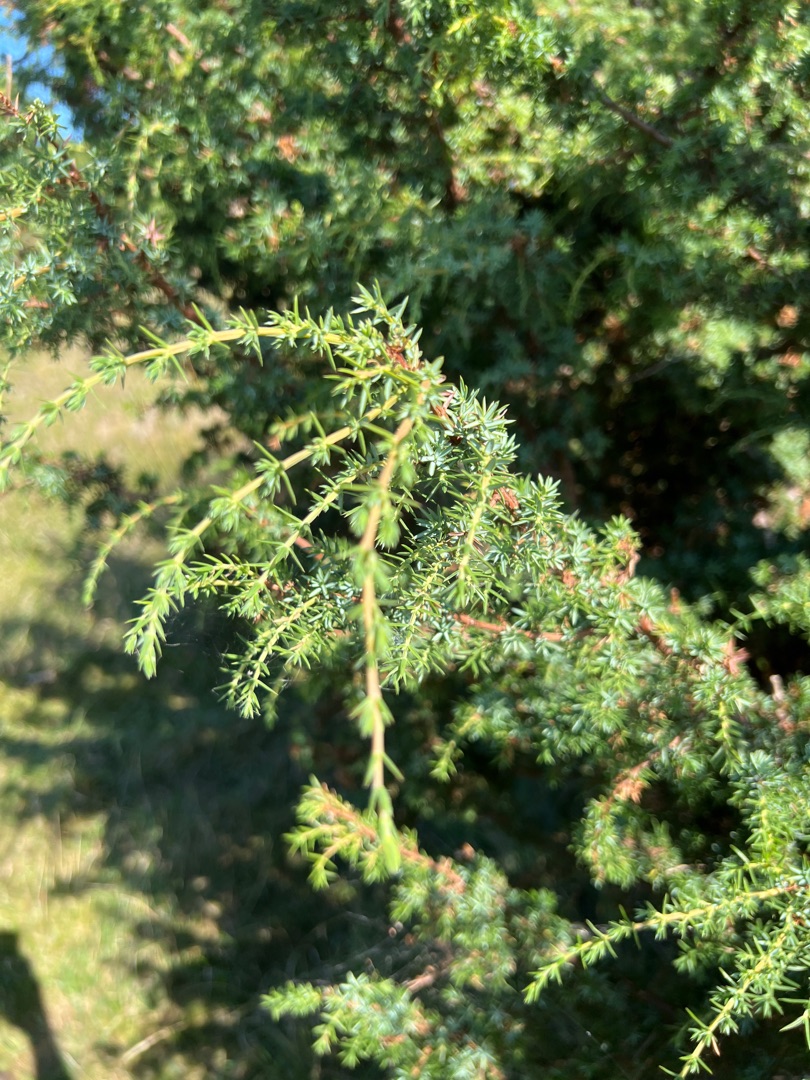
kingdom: Plantae
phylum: Tracheophyta
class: Pinopsida
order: Pinales
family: Cupressaceae
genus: Juniperus
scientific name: Juniperus communis
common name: Almindelig ene
